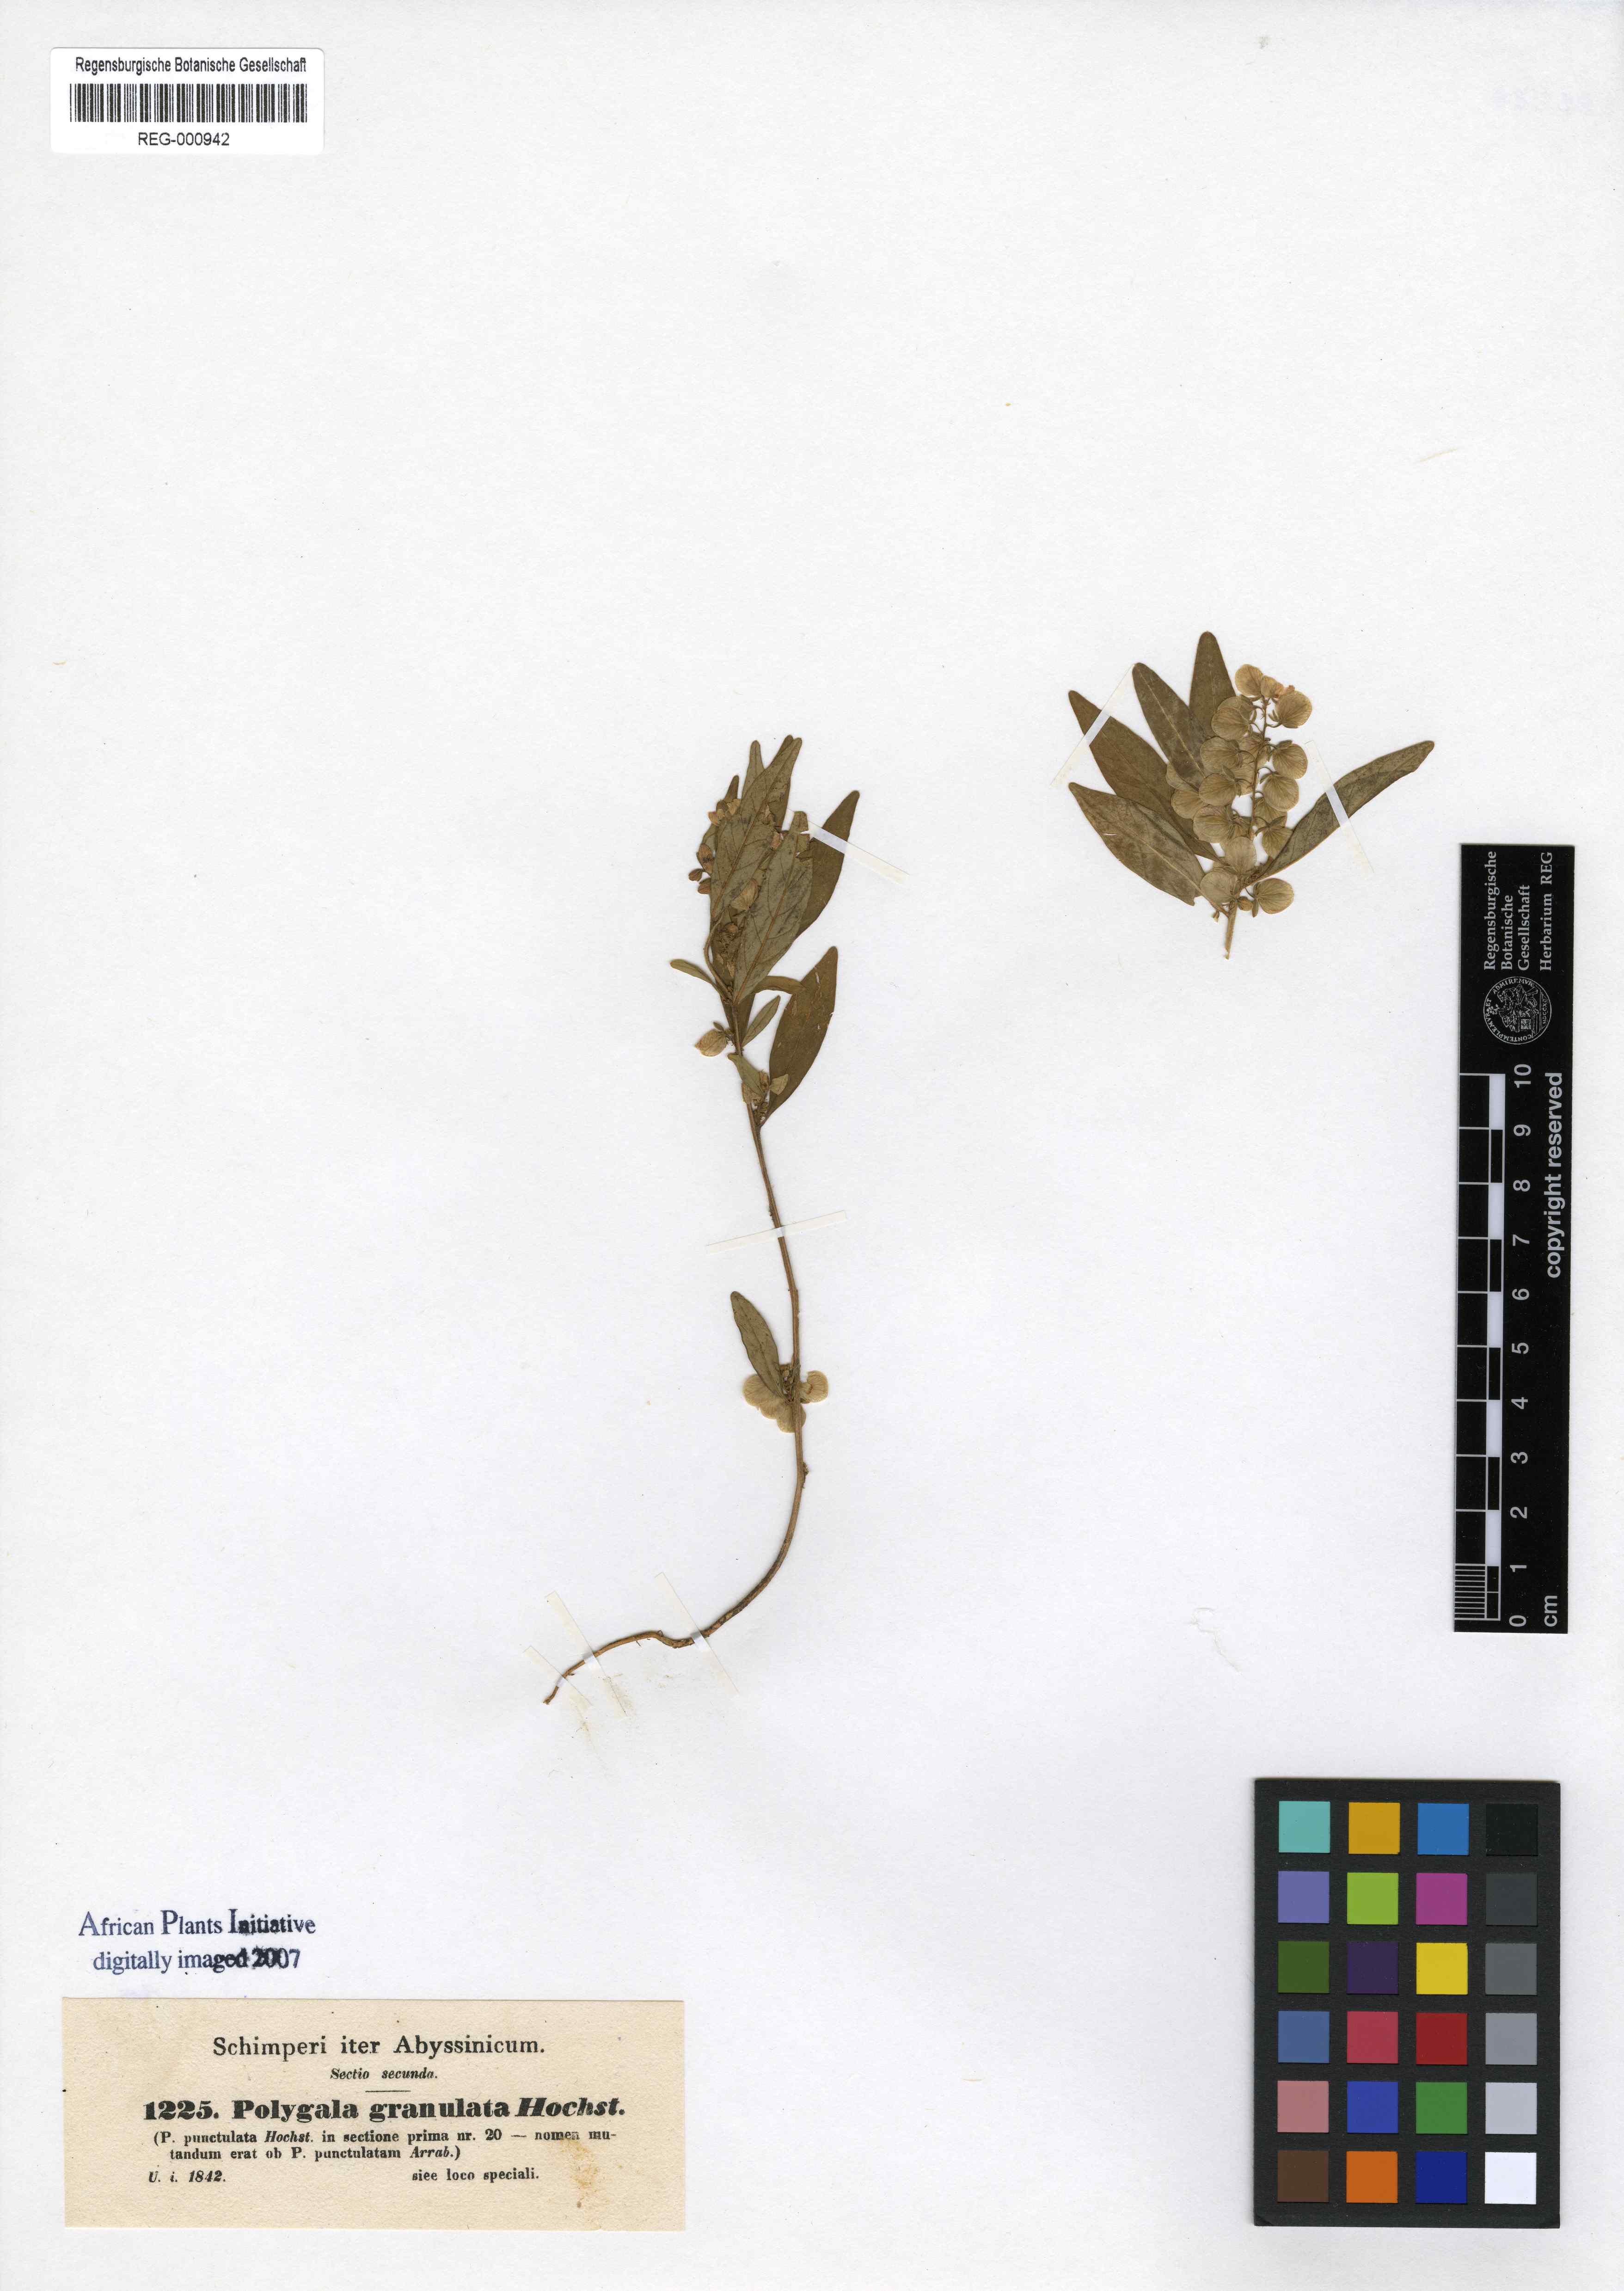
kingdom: Plantae
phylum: Tracheophyta
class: Magnoliopsida
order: Fabales
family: Polygalaceae
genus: Polygala
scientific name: Polygala persicariifolia
